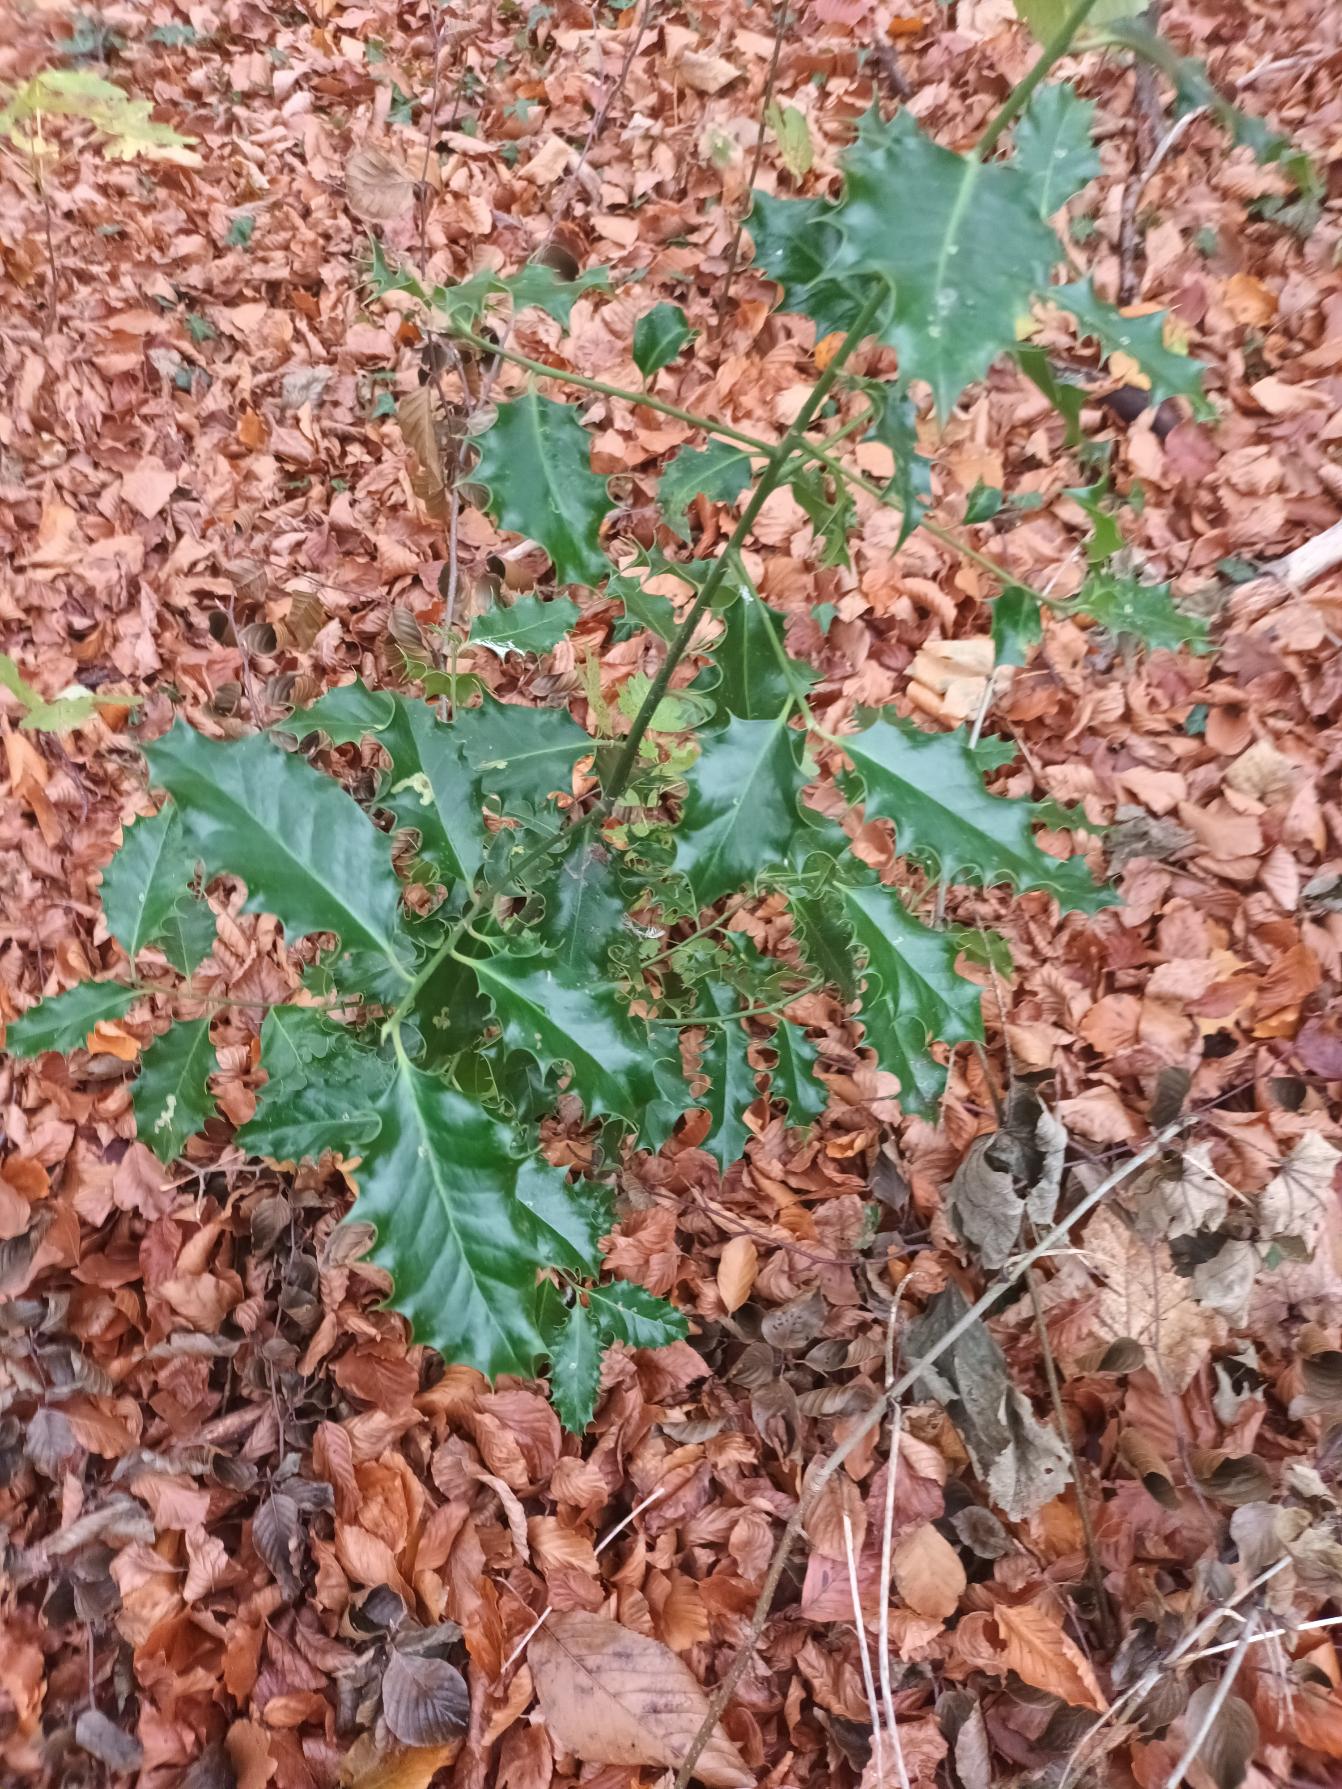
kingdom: Plantae
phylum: Tracheophyta
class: Magnoliopsida
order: Aquifoliales
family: Aquifoliaceae
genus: Ilex
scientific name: Ilex aquifolium
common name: Kristtorn
